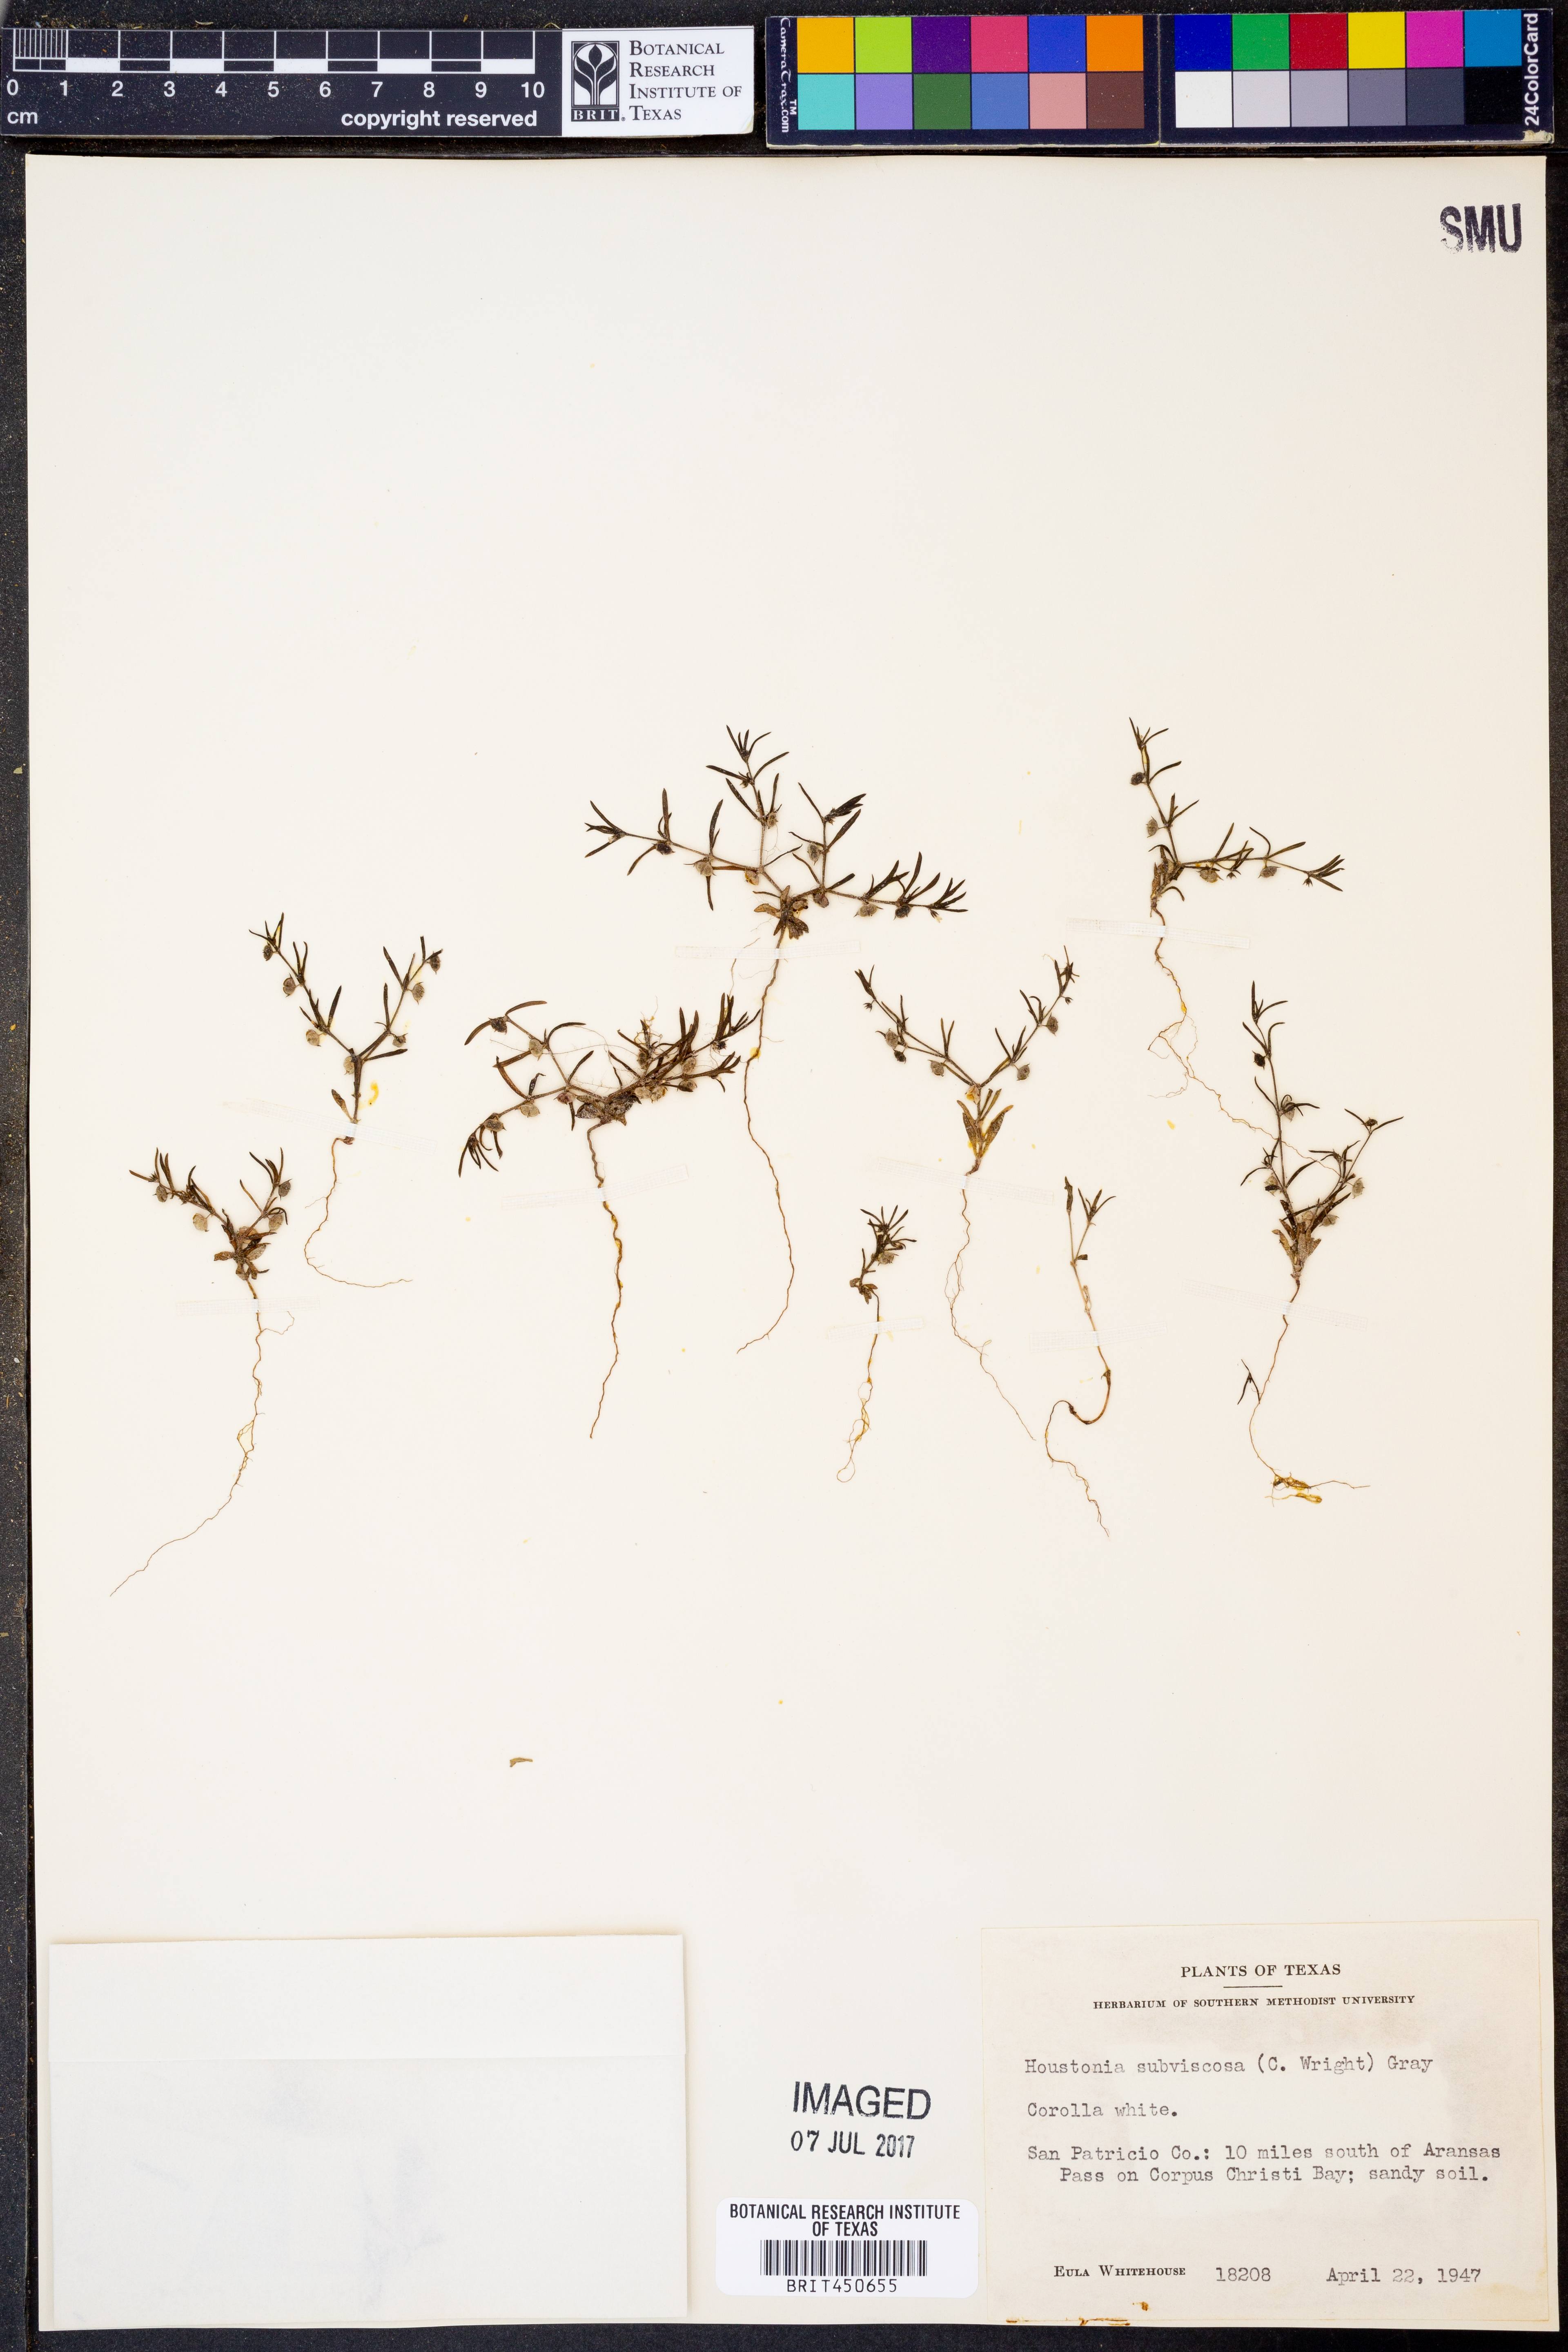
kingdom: Plantae
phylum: Tracheophyta
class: Magnoliopsida
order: Gentianales
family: Rubiaceae
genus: Houstonia
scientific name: Houstonia subviscosa
